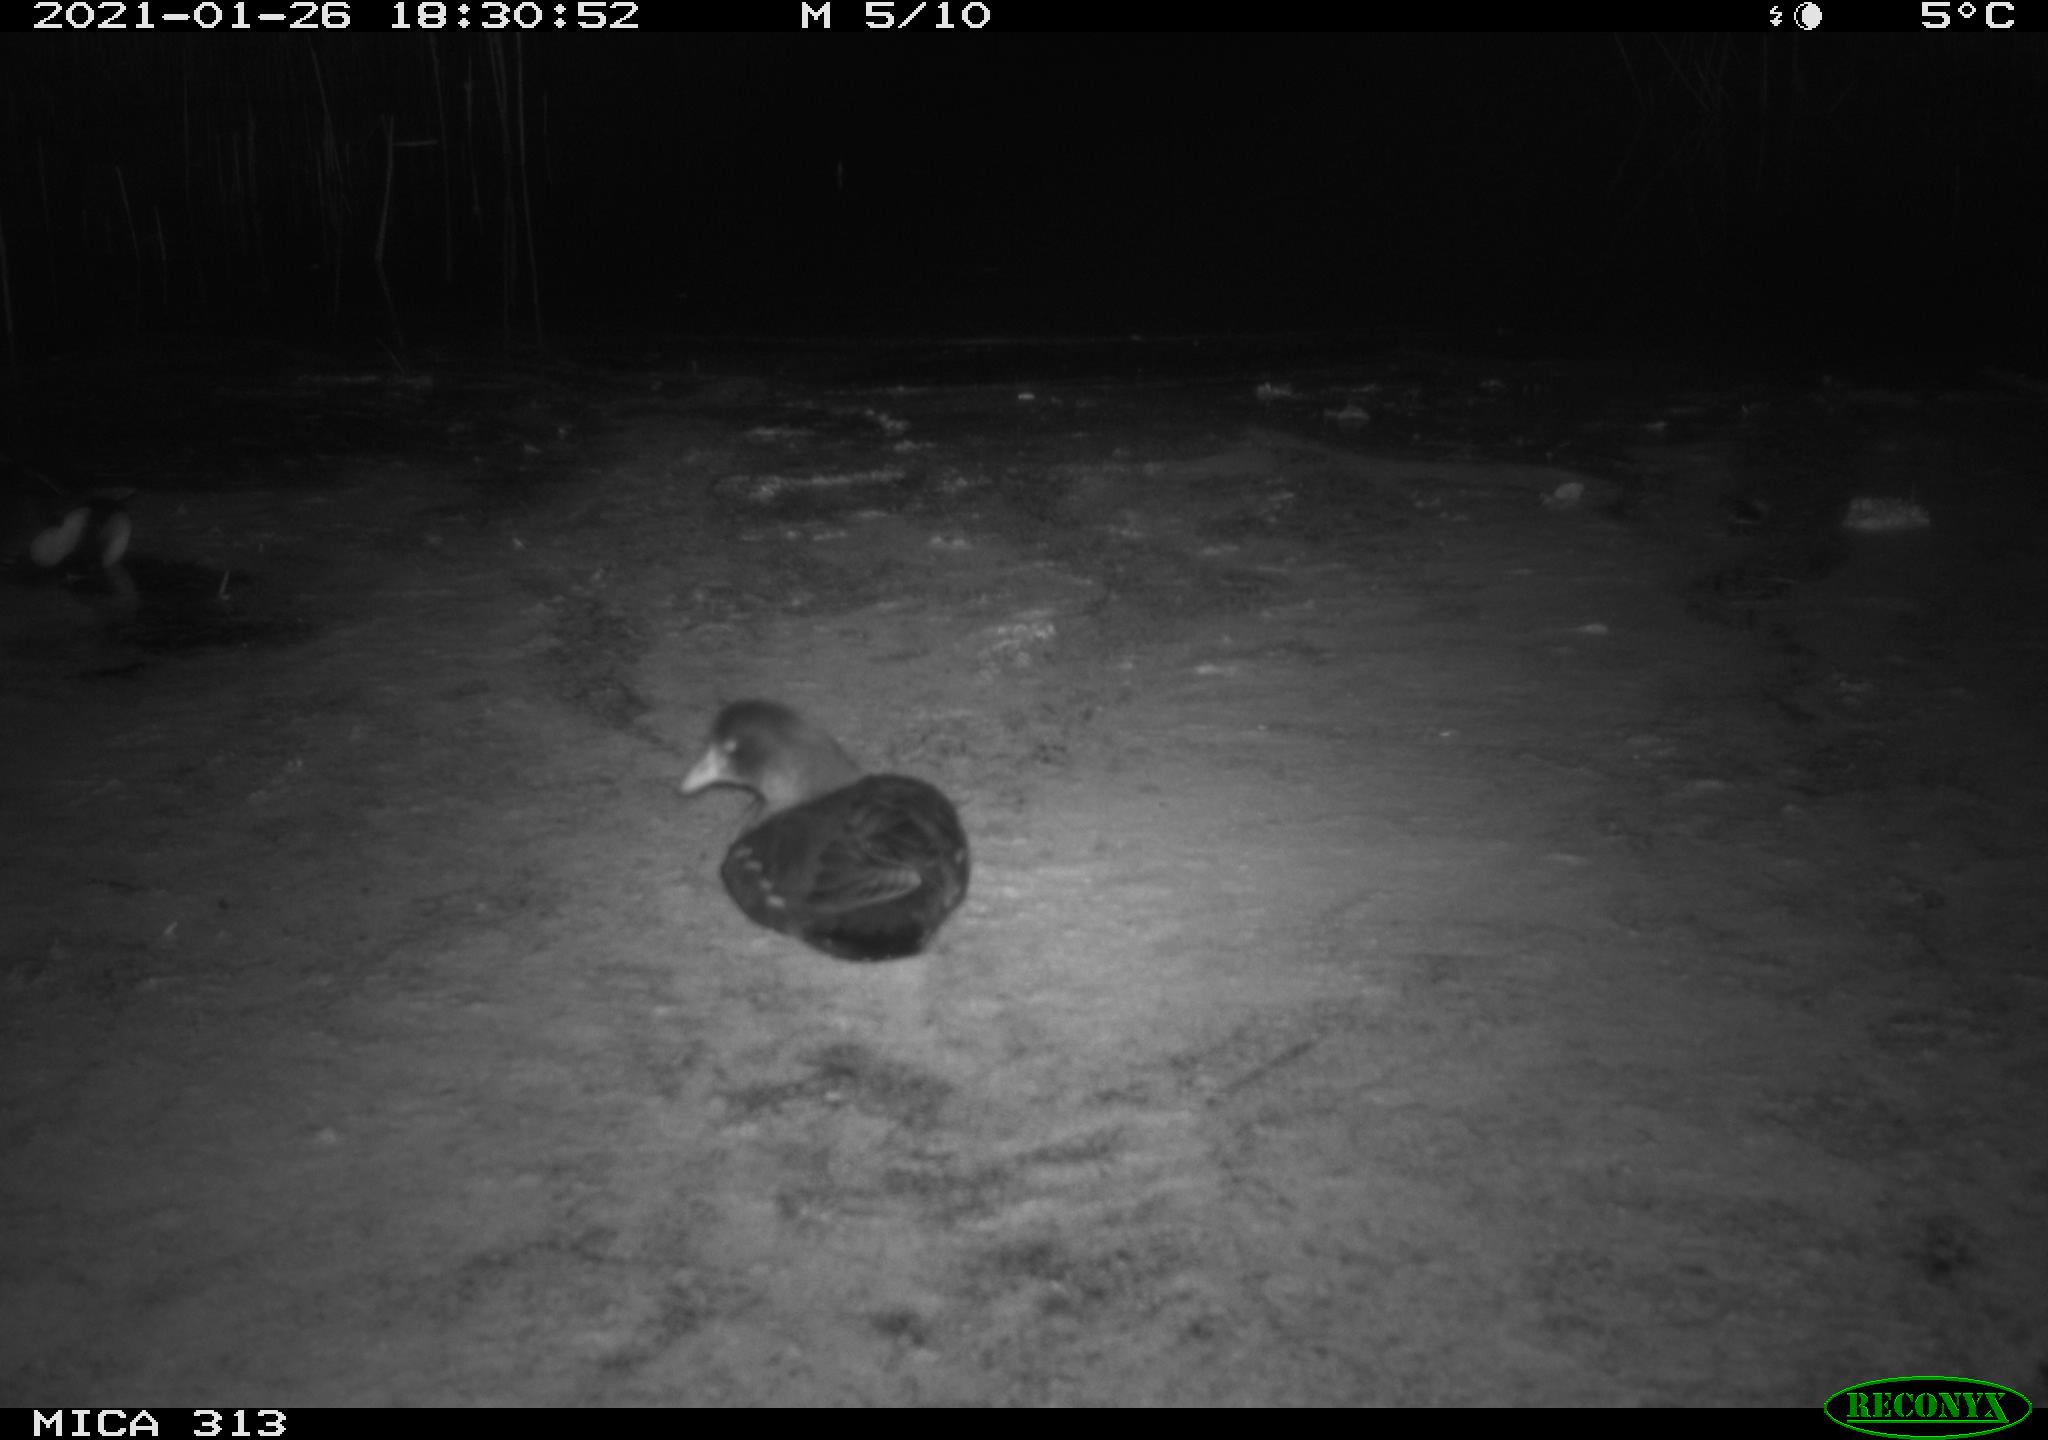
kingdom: Animalia
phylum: Chordata
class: Aves
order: Gruiformes
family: Rallidae
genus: Fulica
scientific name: Fulica atra
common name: Eurasian coot
